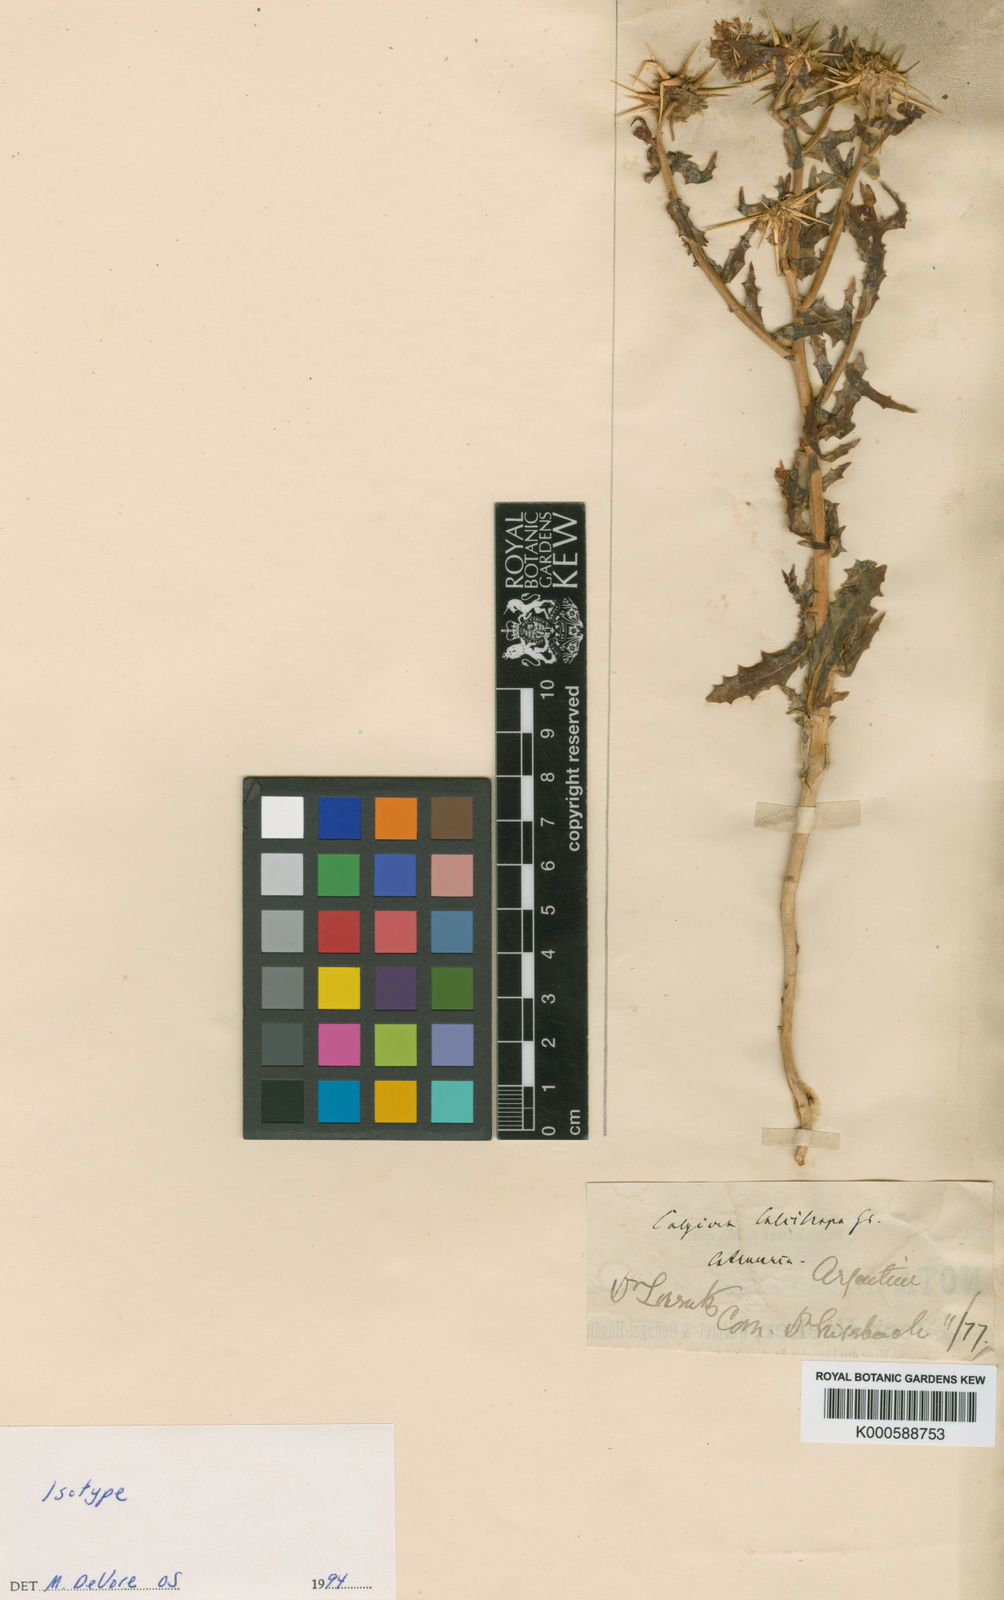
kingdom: Plantae
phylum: Tracheophyta
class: Magnoliopsida
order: Asterales
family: Calyceraceae
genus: Calycera
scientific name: Calycera calcitrapa
